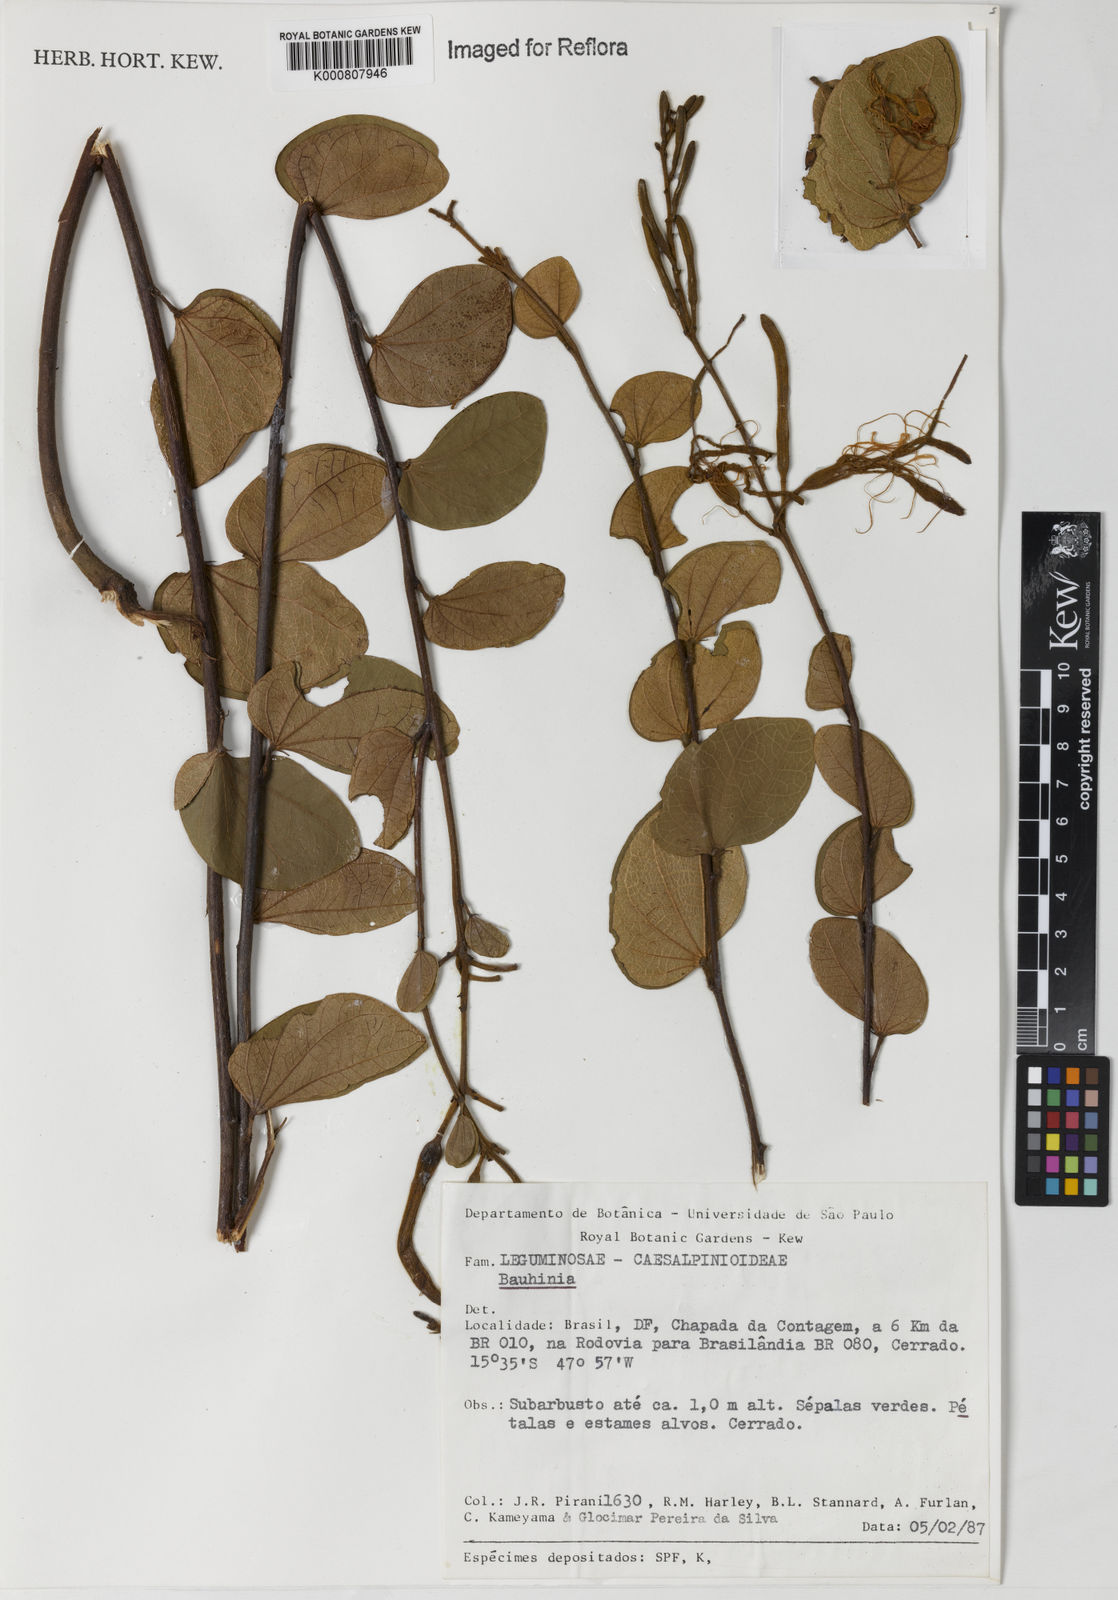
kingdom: Plantae
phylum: Tracheophyta
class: Magnoliopsida
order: Fabales
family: Fabaceae
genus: Bauhinia
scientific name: Bauhinia
